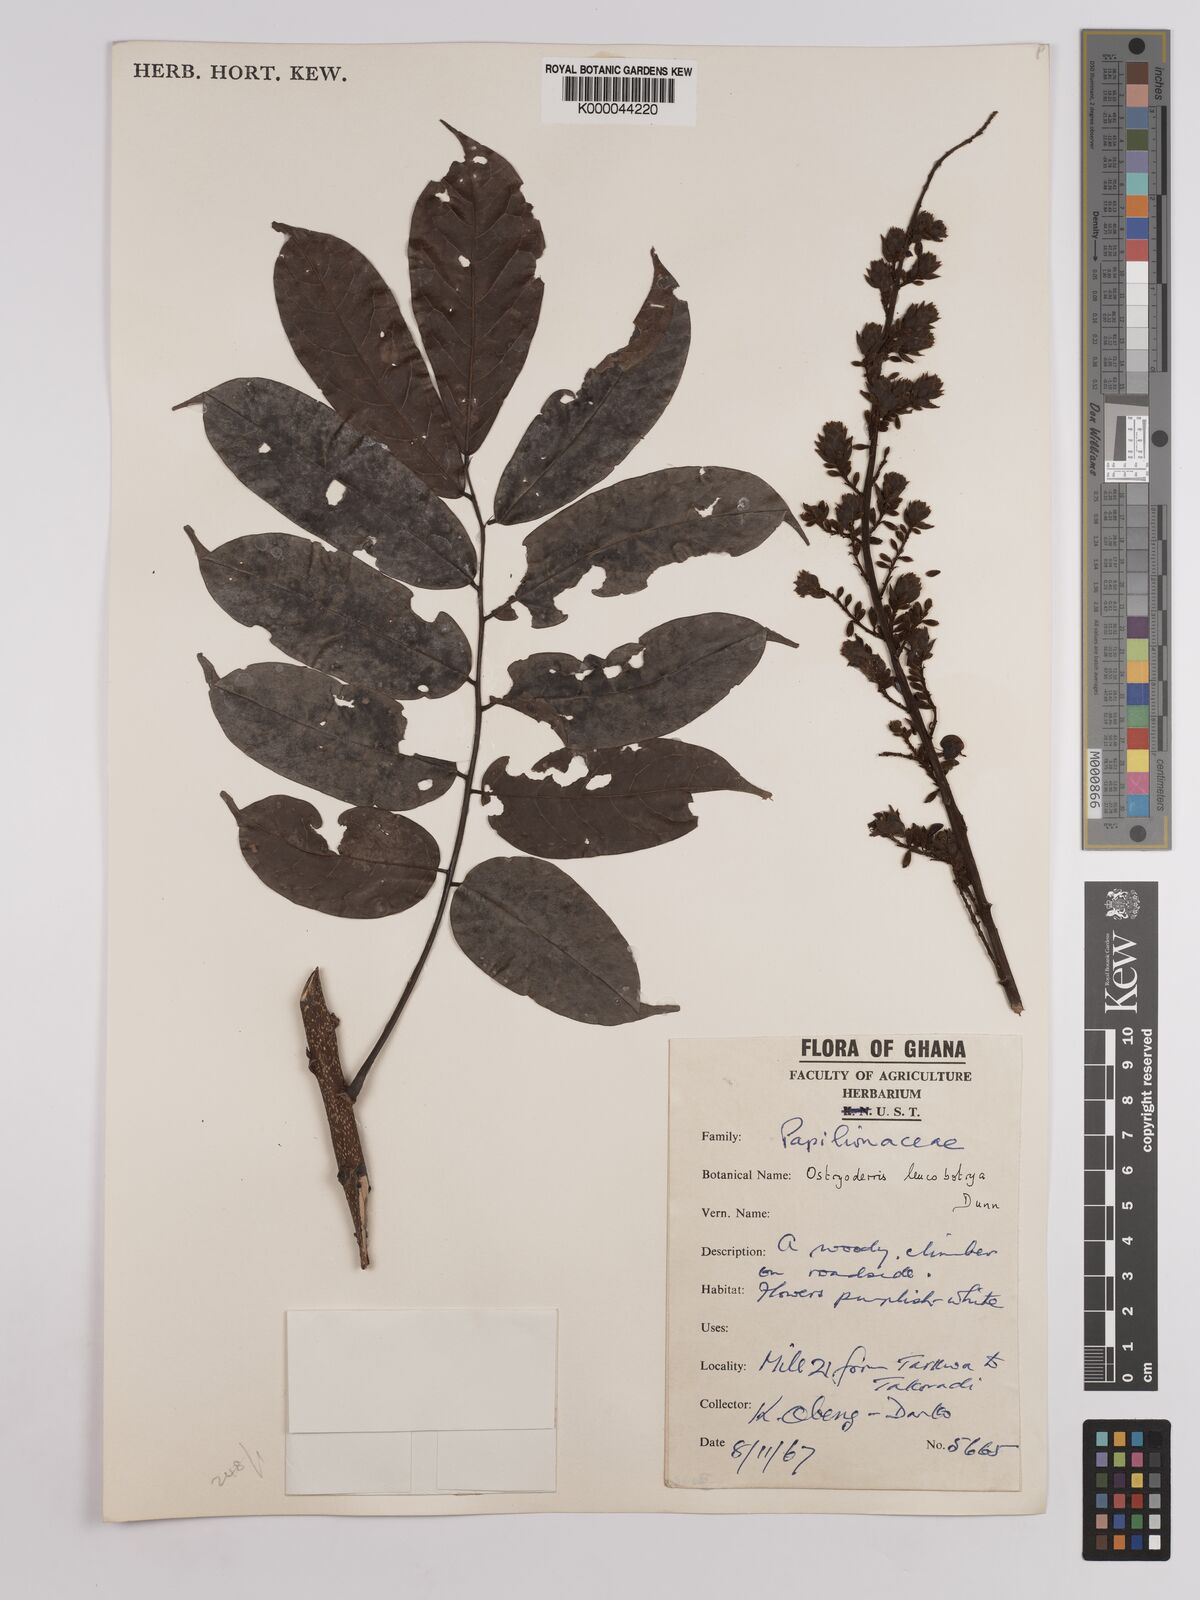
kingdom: Plantae
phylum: Tracheophyta
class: Magnoliopsida
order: Fabales
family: Fabaceae
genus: Aganope
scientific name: Aganope leucobotrya
